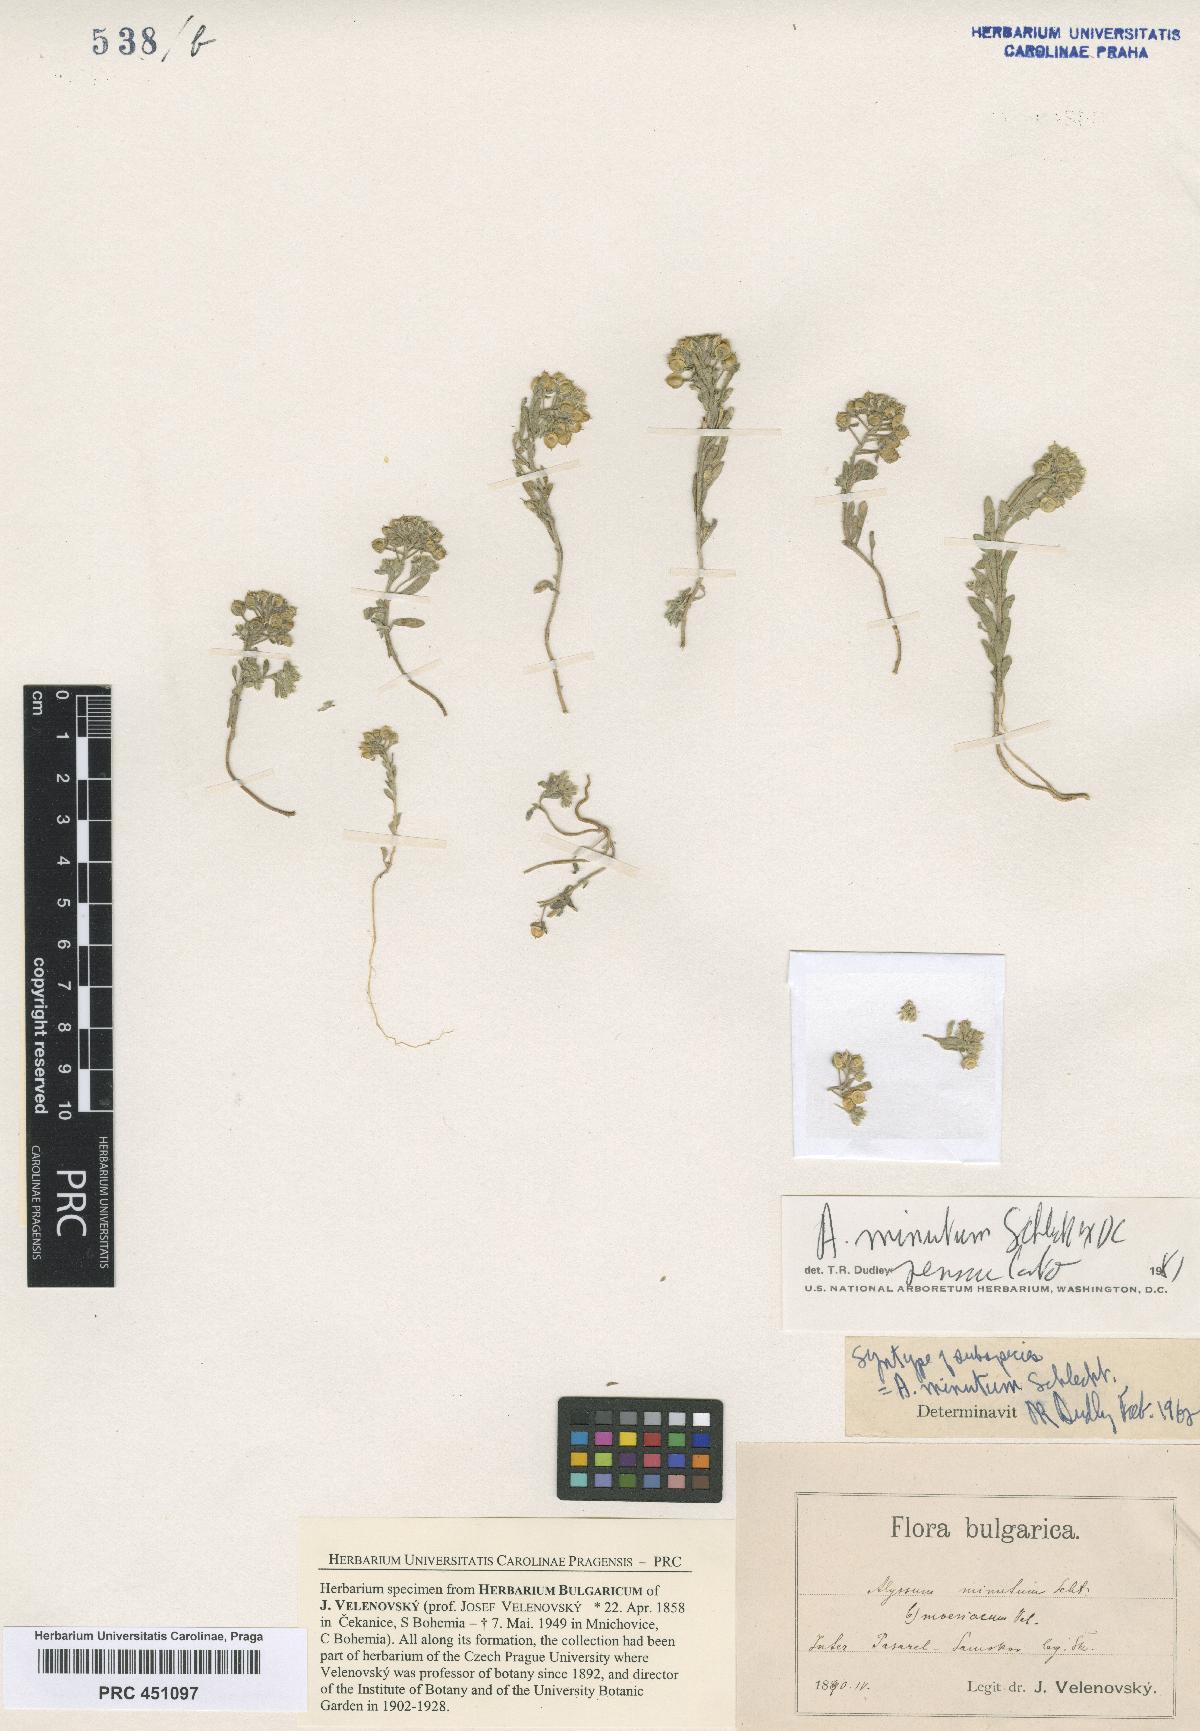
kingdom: Plantae
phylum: Tracheophyta
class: Magnoliopsida
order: Brassicales
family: Brassicaceae
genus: Alyssum
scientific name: Alyssum minutum
